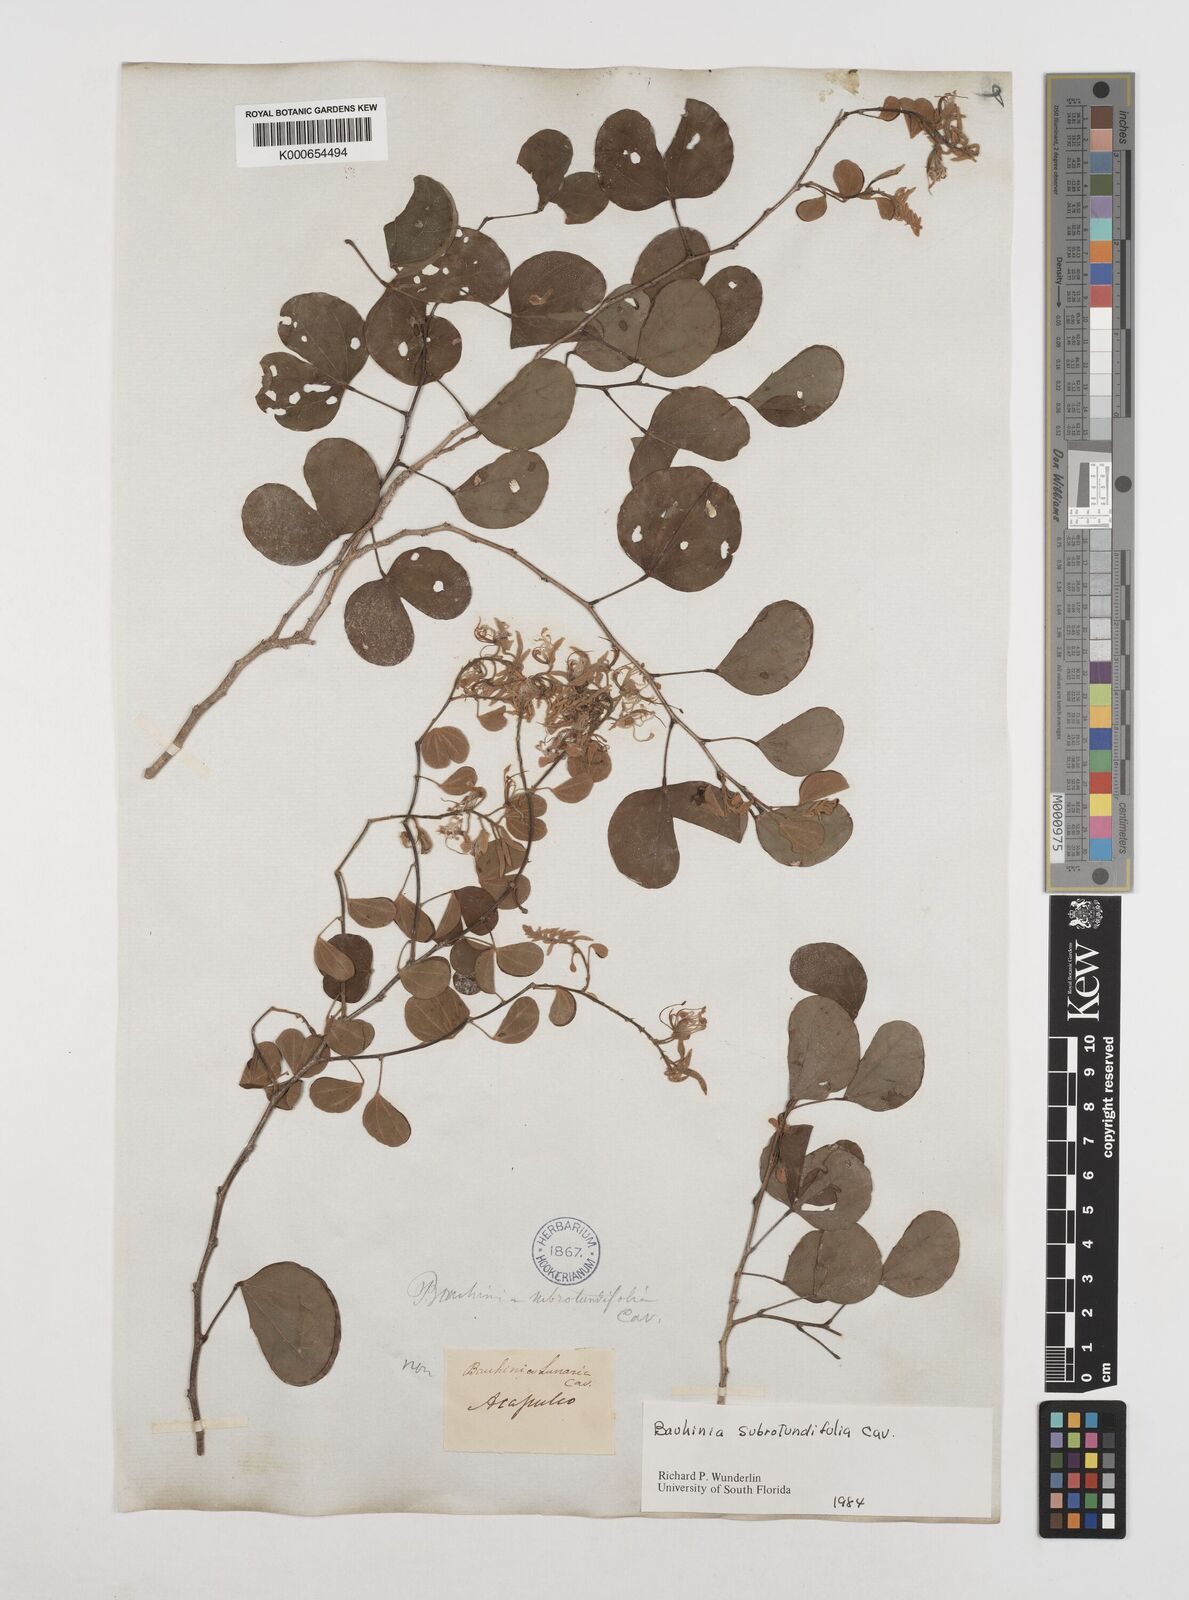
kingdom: Plantae
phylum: Tracheophyta
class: Magnoliopsida
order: Fabales
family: Fabaceae
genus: Bauhinia
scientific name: Bauhinia subrotundifolia
